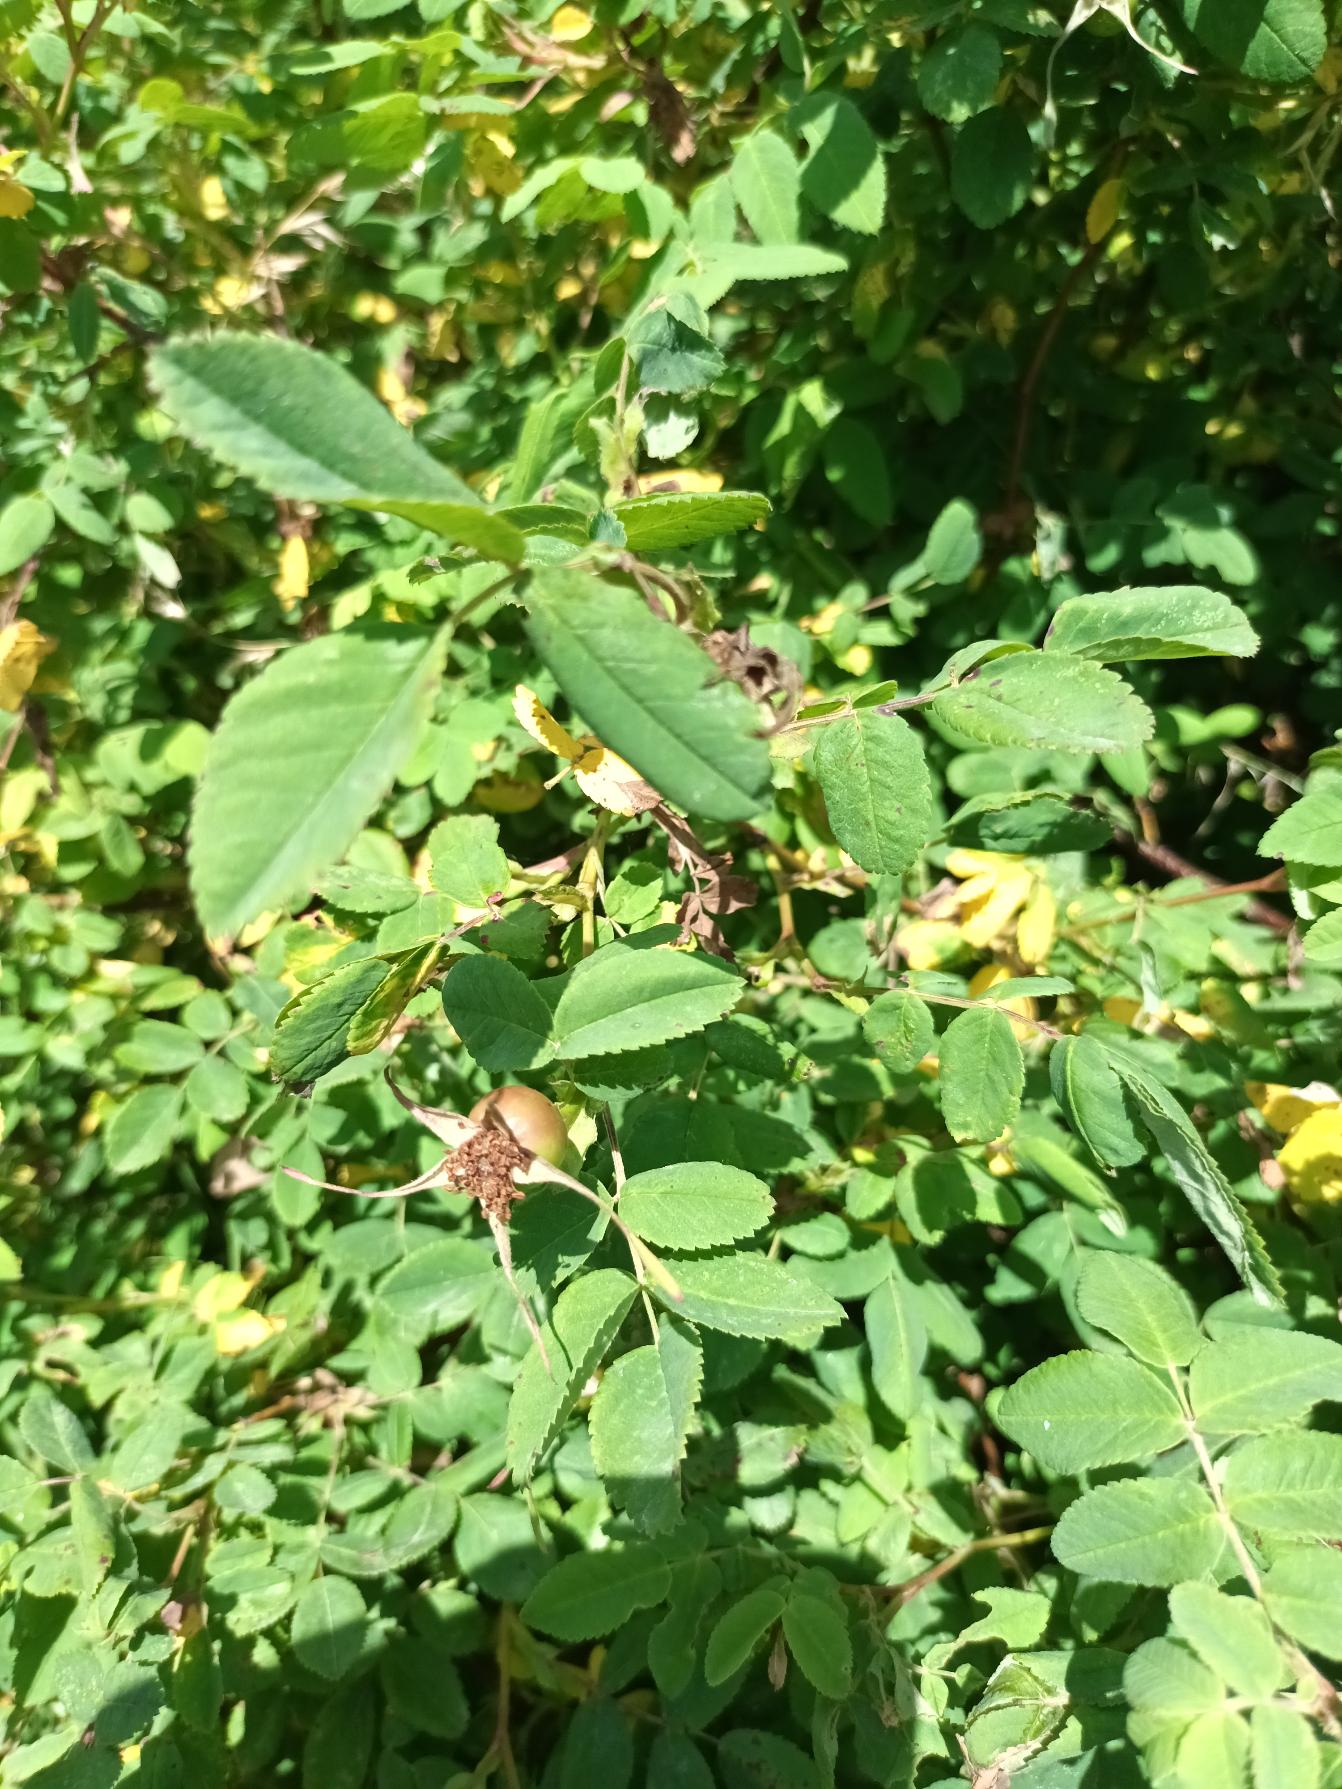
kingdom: Plantae
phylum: Tracheophyta
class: Magnoliopsida
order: Rosales
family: Rosaceae
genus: Rosa
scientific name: Rosa blanda
